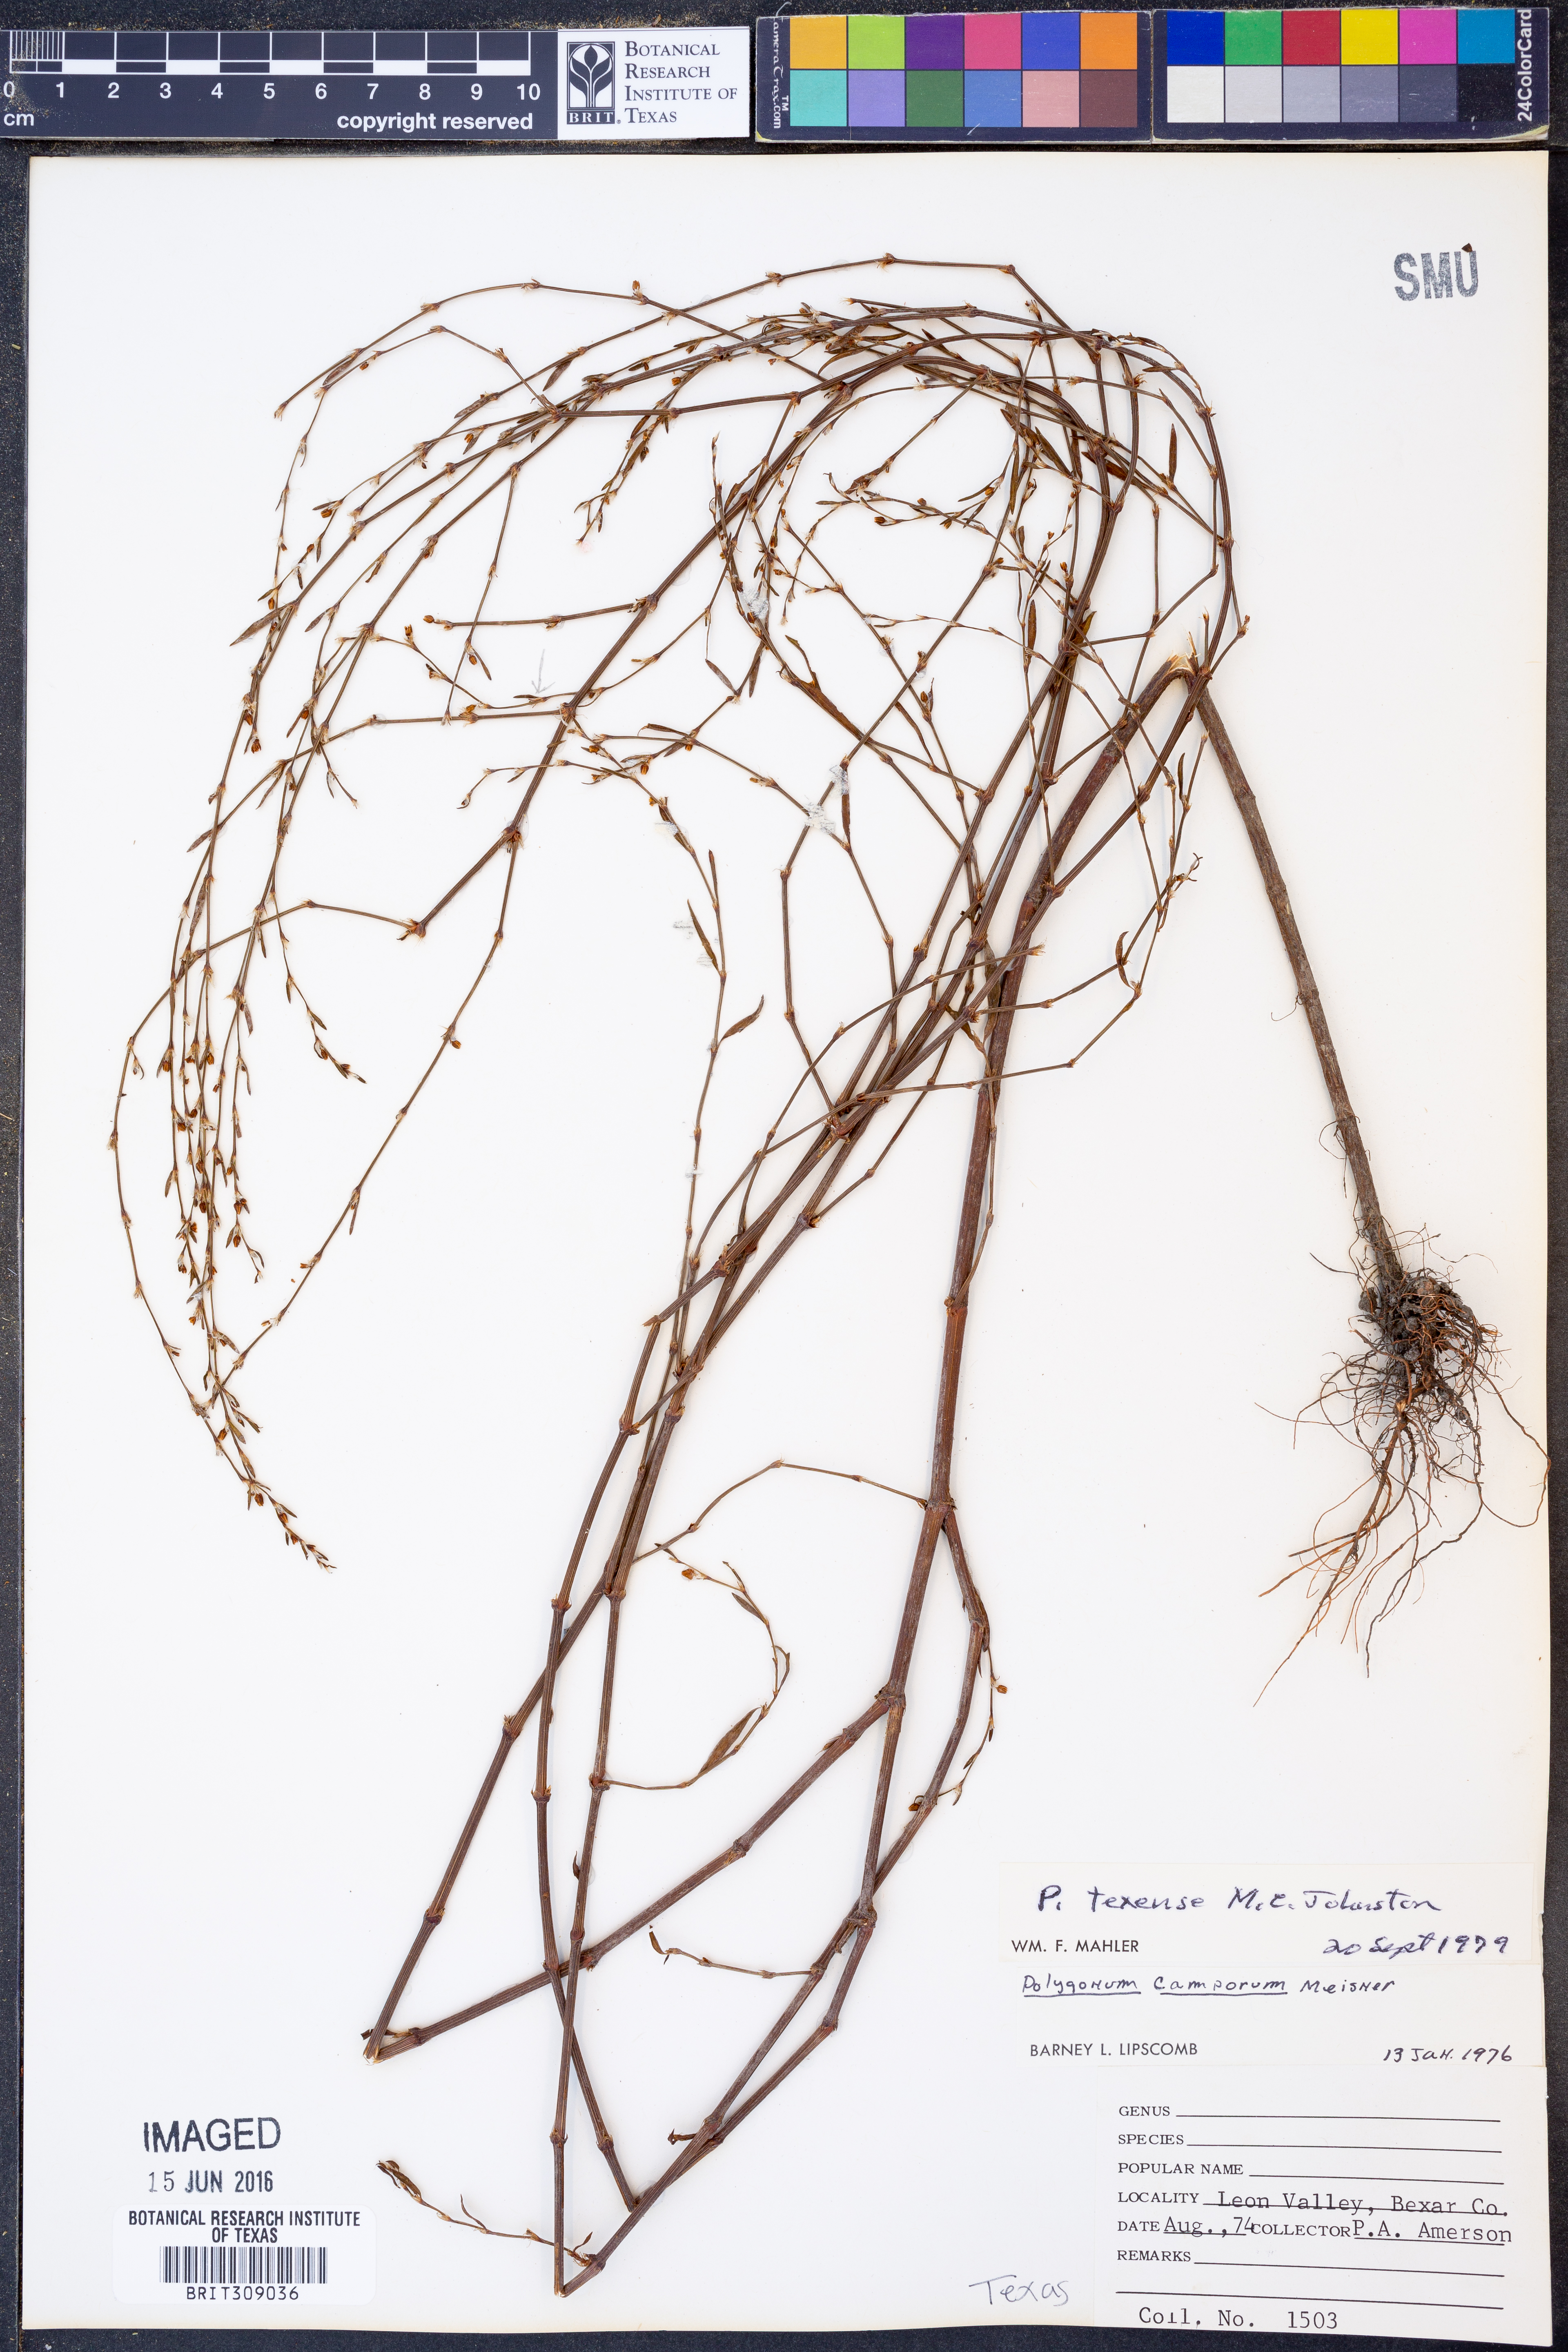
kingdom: Plantae
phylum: Tracheophyta
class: Magnoliopsida
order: Caryophyllales
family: Polygonaceae
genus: Polygonum
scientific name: Polygonum striatulum
